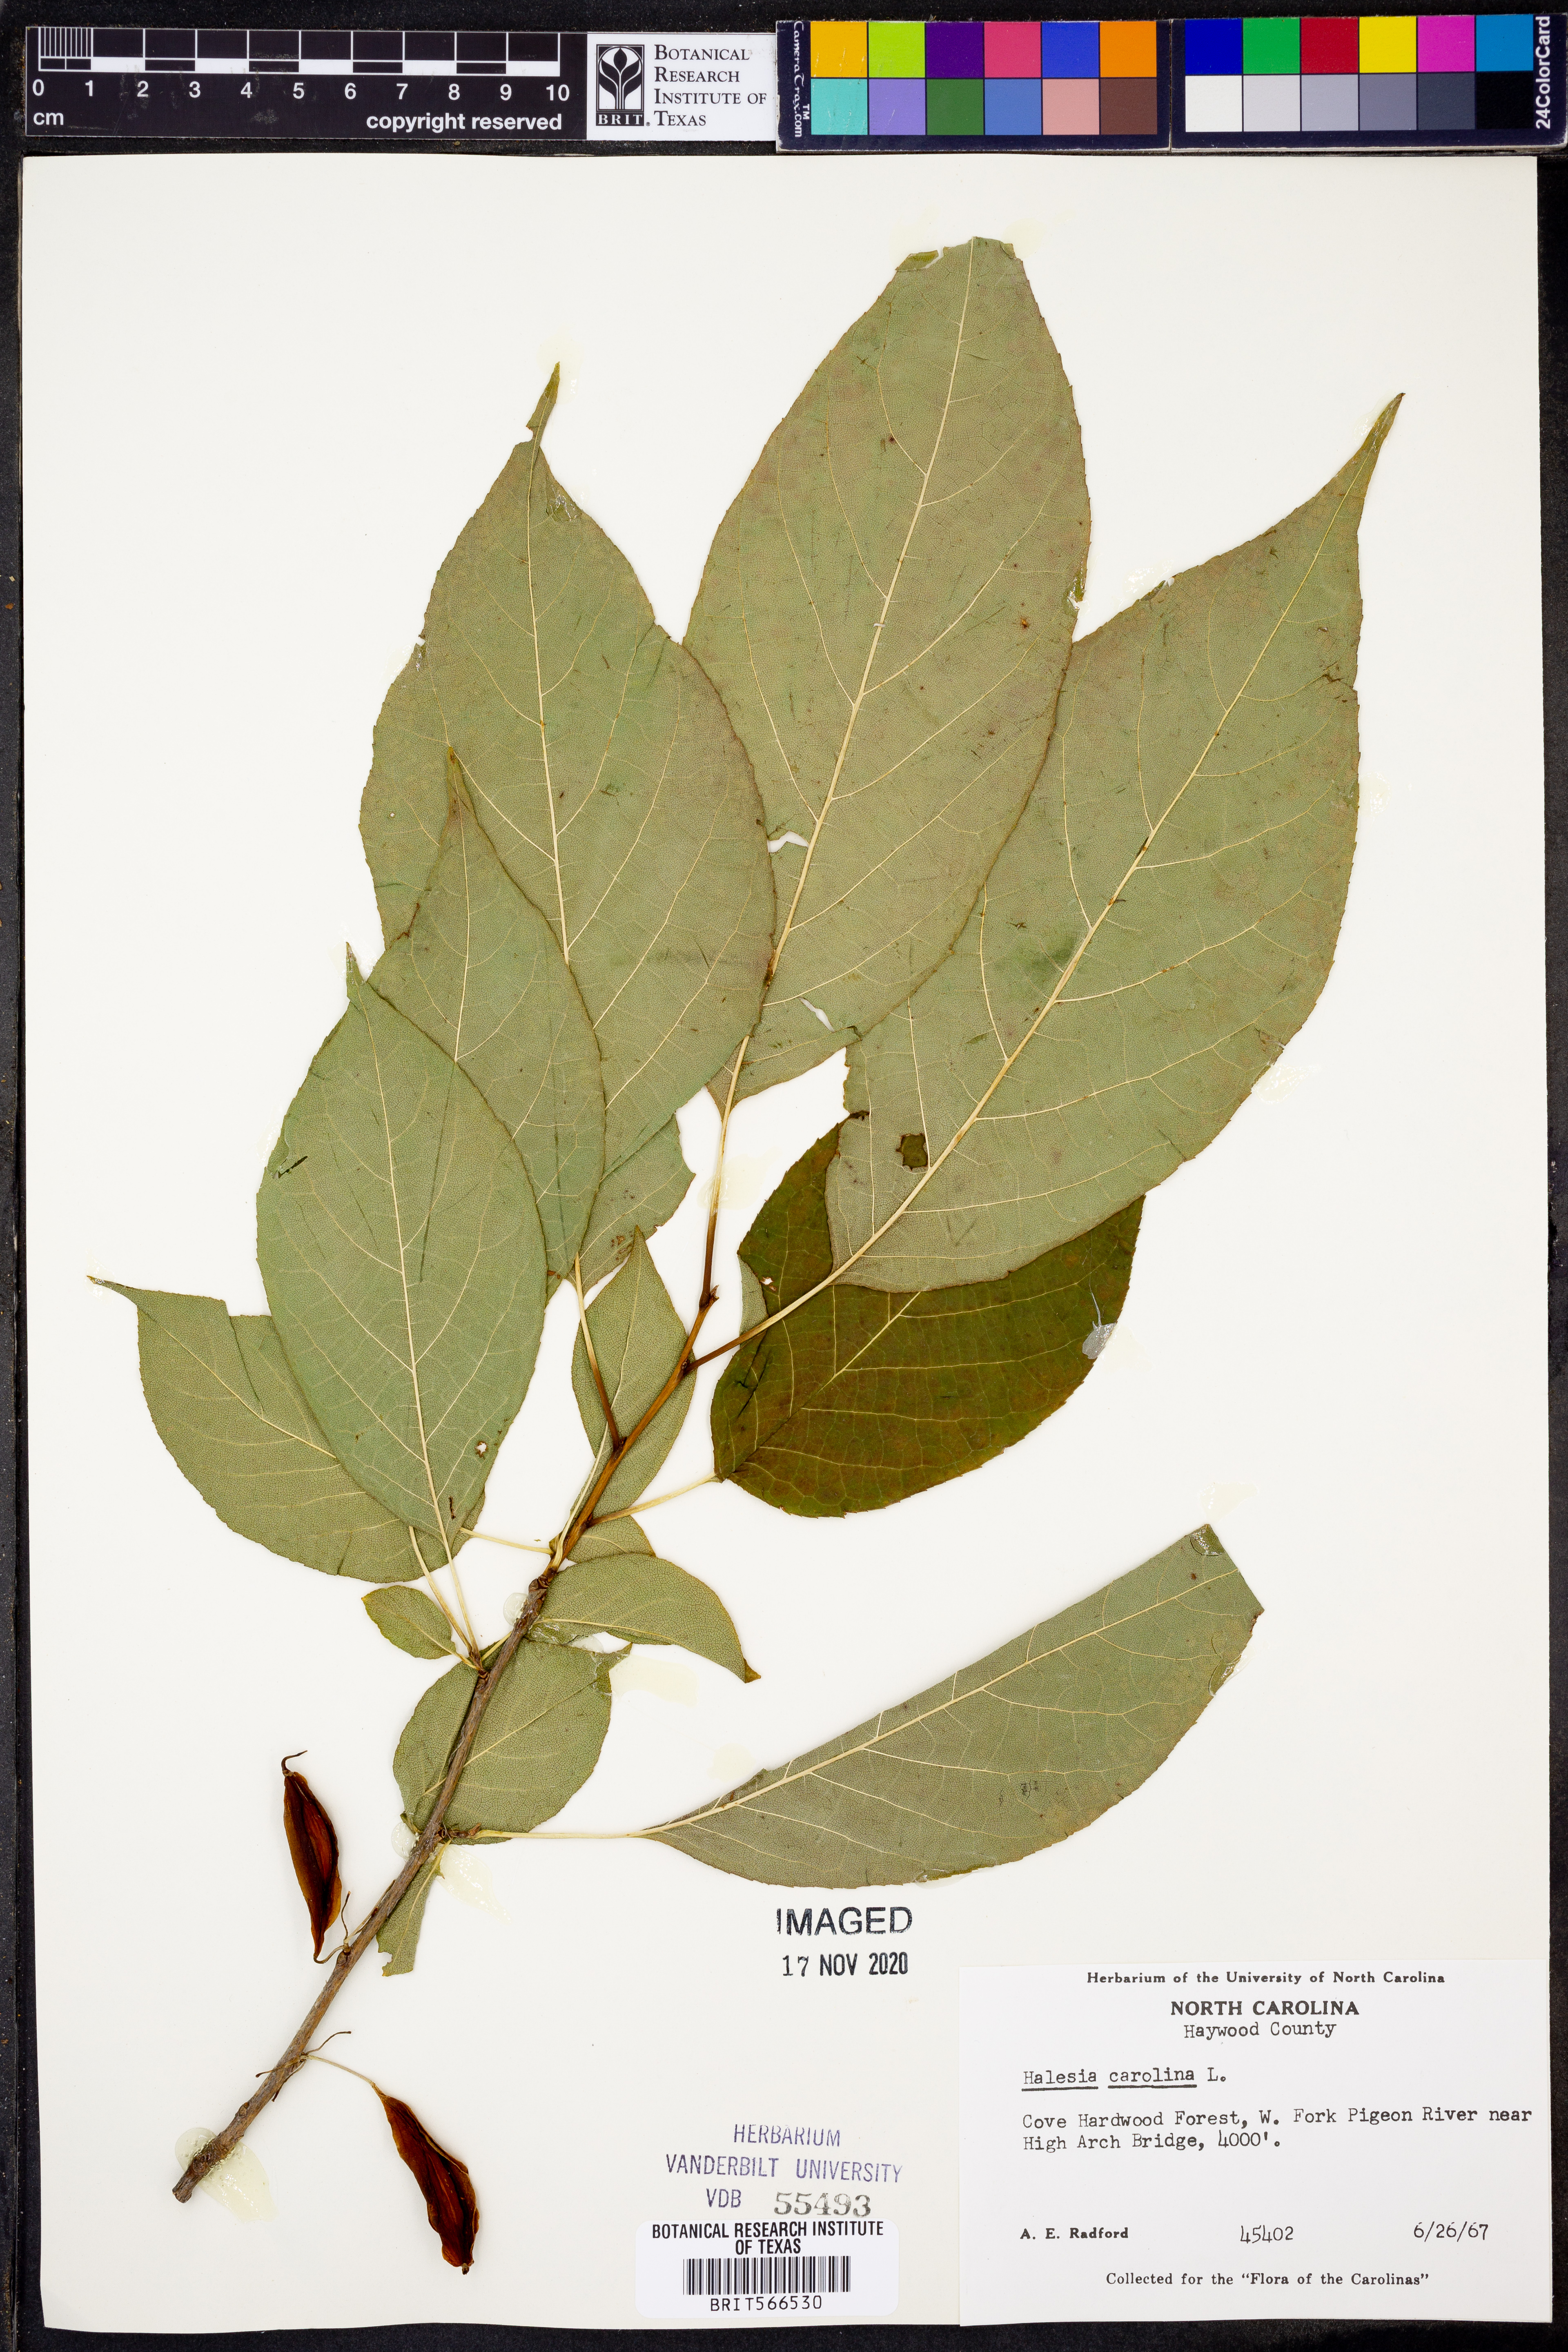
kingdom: Plantae
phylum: Tracheophyta
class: Magnoliopsida
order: Ericales
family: Styracaceae
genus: Halesia
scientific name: Halesia carolina
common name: Carolina silverbell
